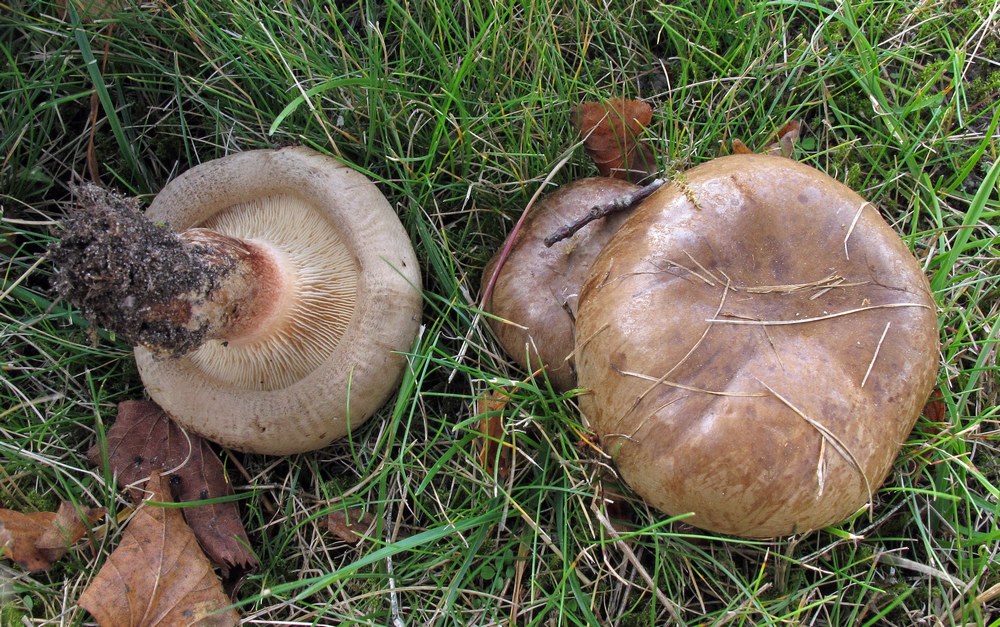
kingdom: Fungi
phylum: Basidiomycota
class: Agaricomycetes
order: Boletales
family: Paxillaceae
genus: Paxillus
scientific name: Paxillus
